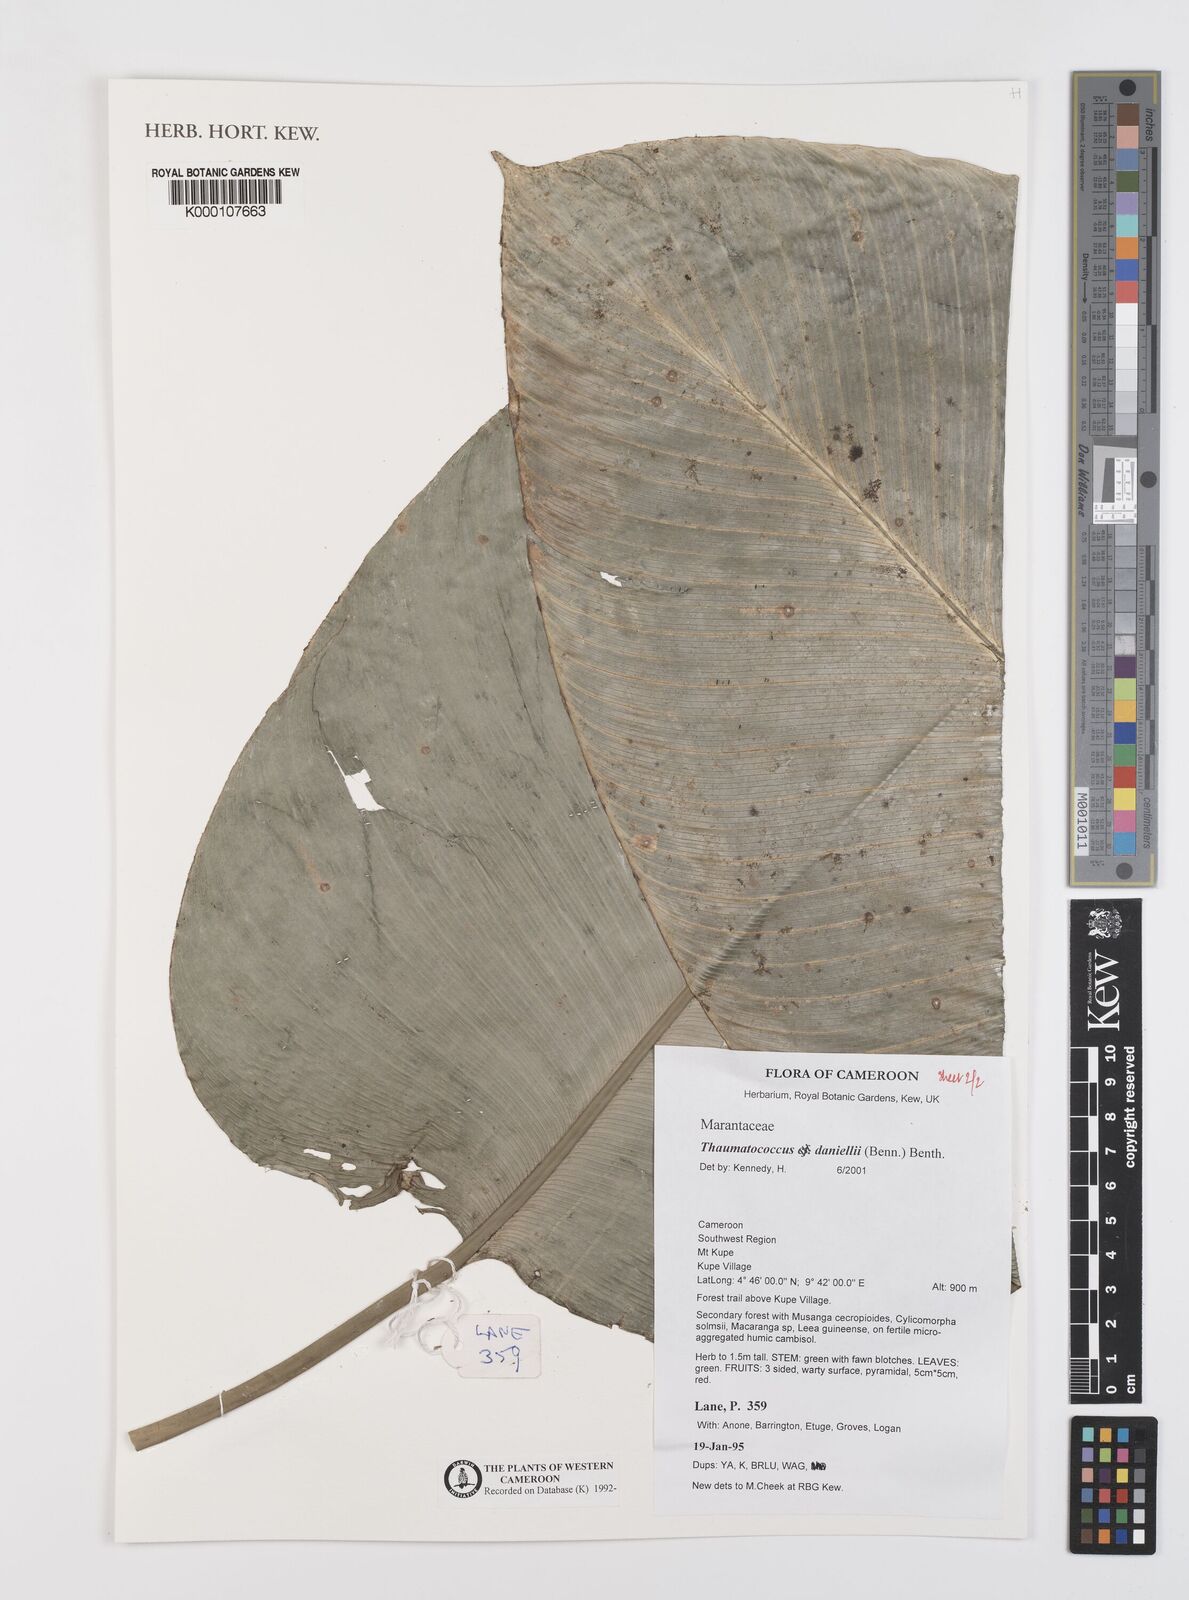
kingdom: Plantae
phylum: Tracheophyta
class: Liliopsida
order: Zingiberales
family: Marantaceae
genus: Thaumatococcus
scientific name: Thaumatococcus
